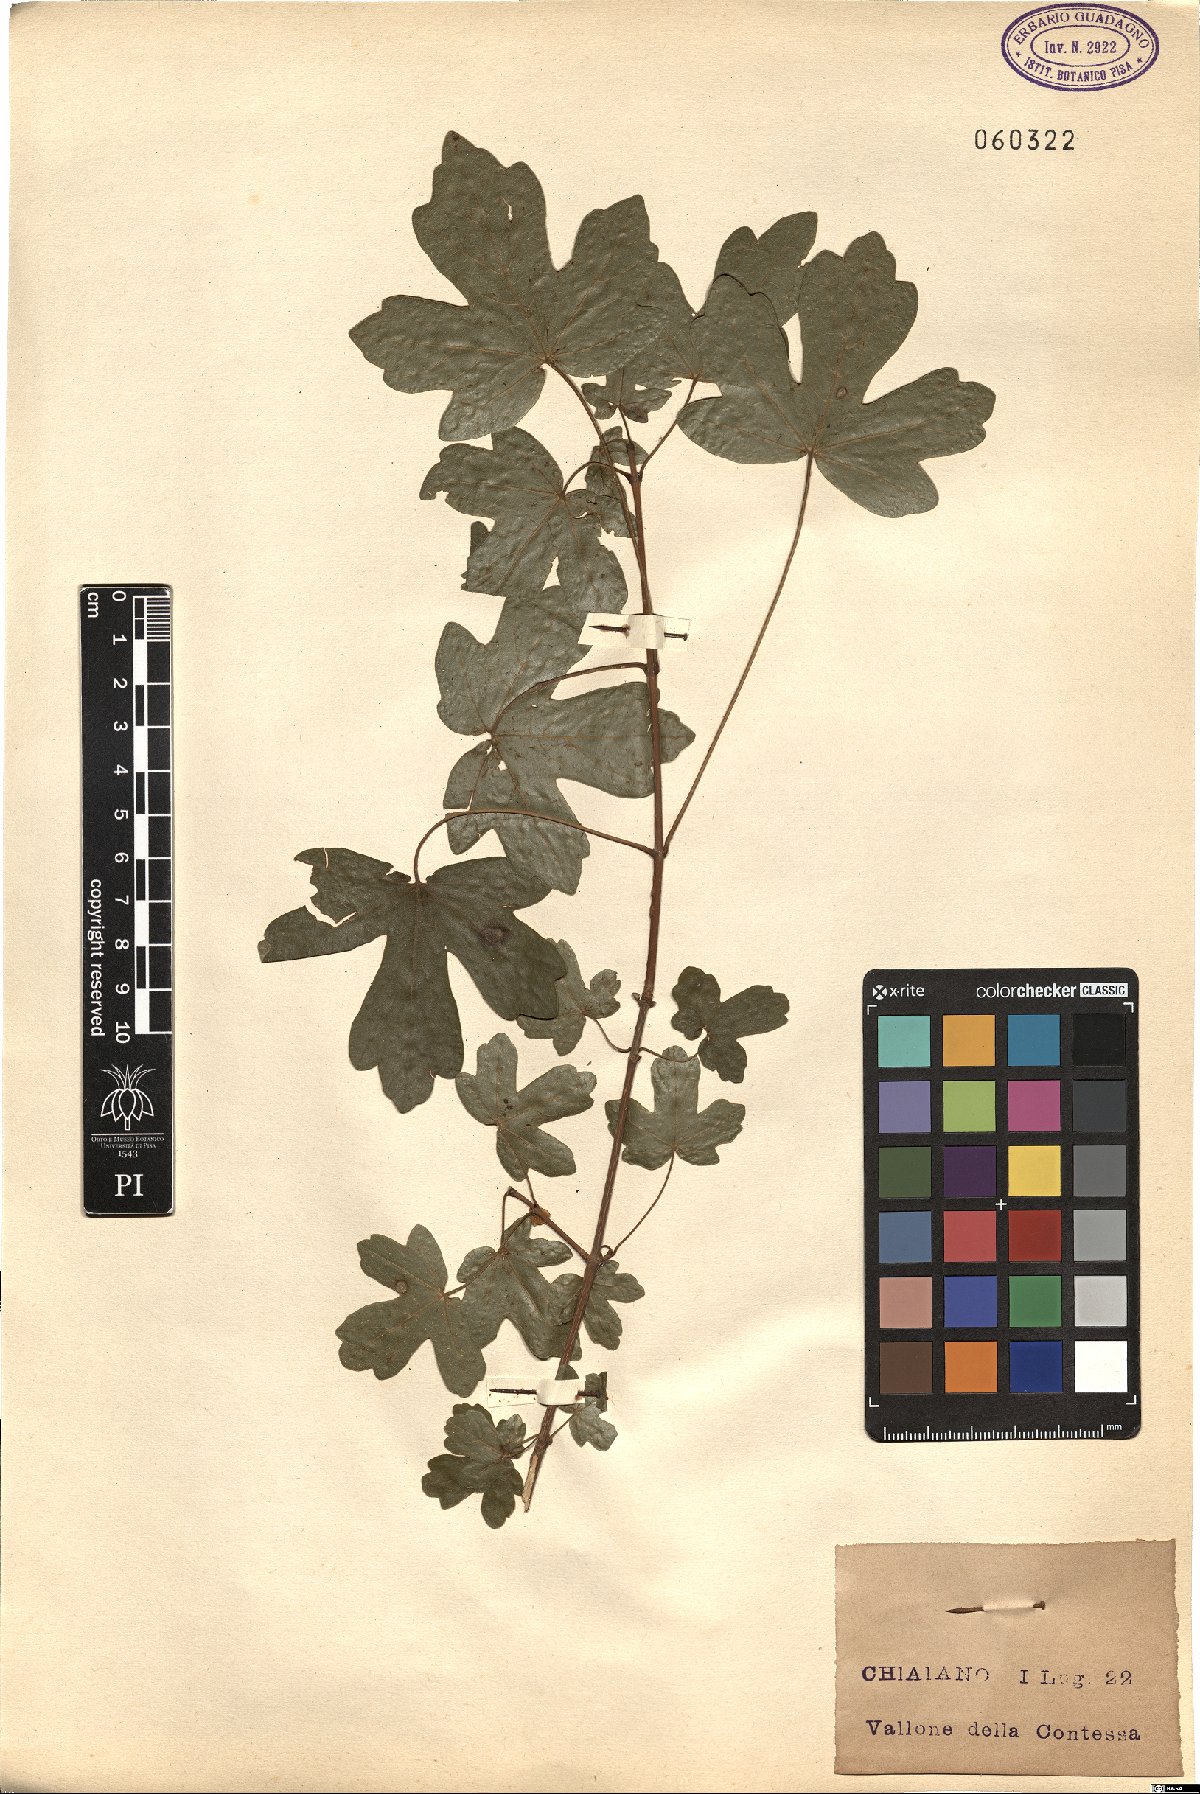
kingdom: Plantae
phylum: Tracheophyta
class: Magnoliopsida
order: Sapindales
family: Sapindaceae
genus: Acer
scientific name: Acer campestre
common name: Field maple
